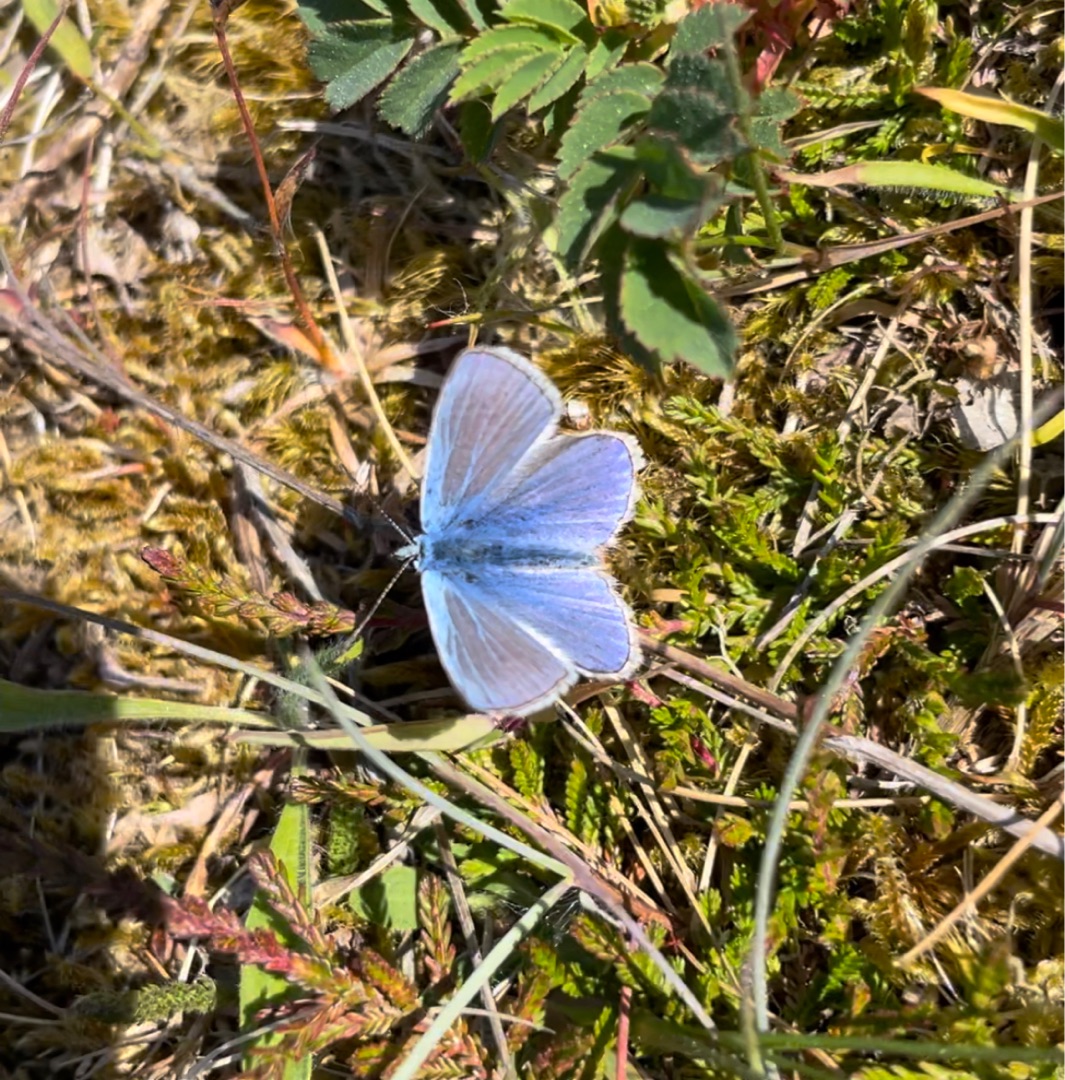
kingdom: Animalia
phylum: Arthropoda
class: Insecta
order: Lepidoptera
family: Lycaenidae
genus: Polyommatus
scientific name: Polyommatus icarus
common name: Almindelig blåfugl
